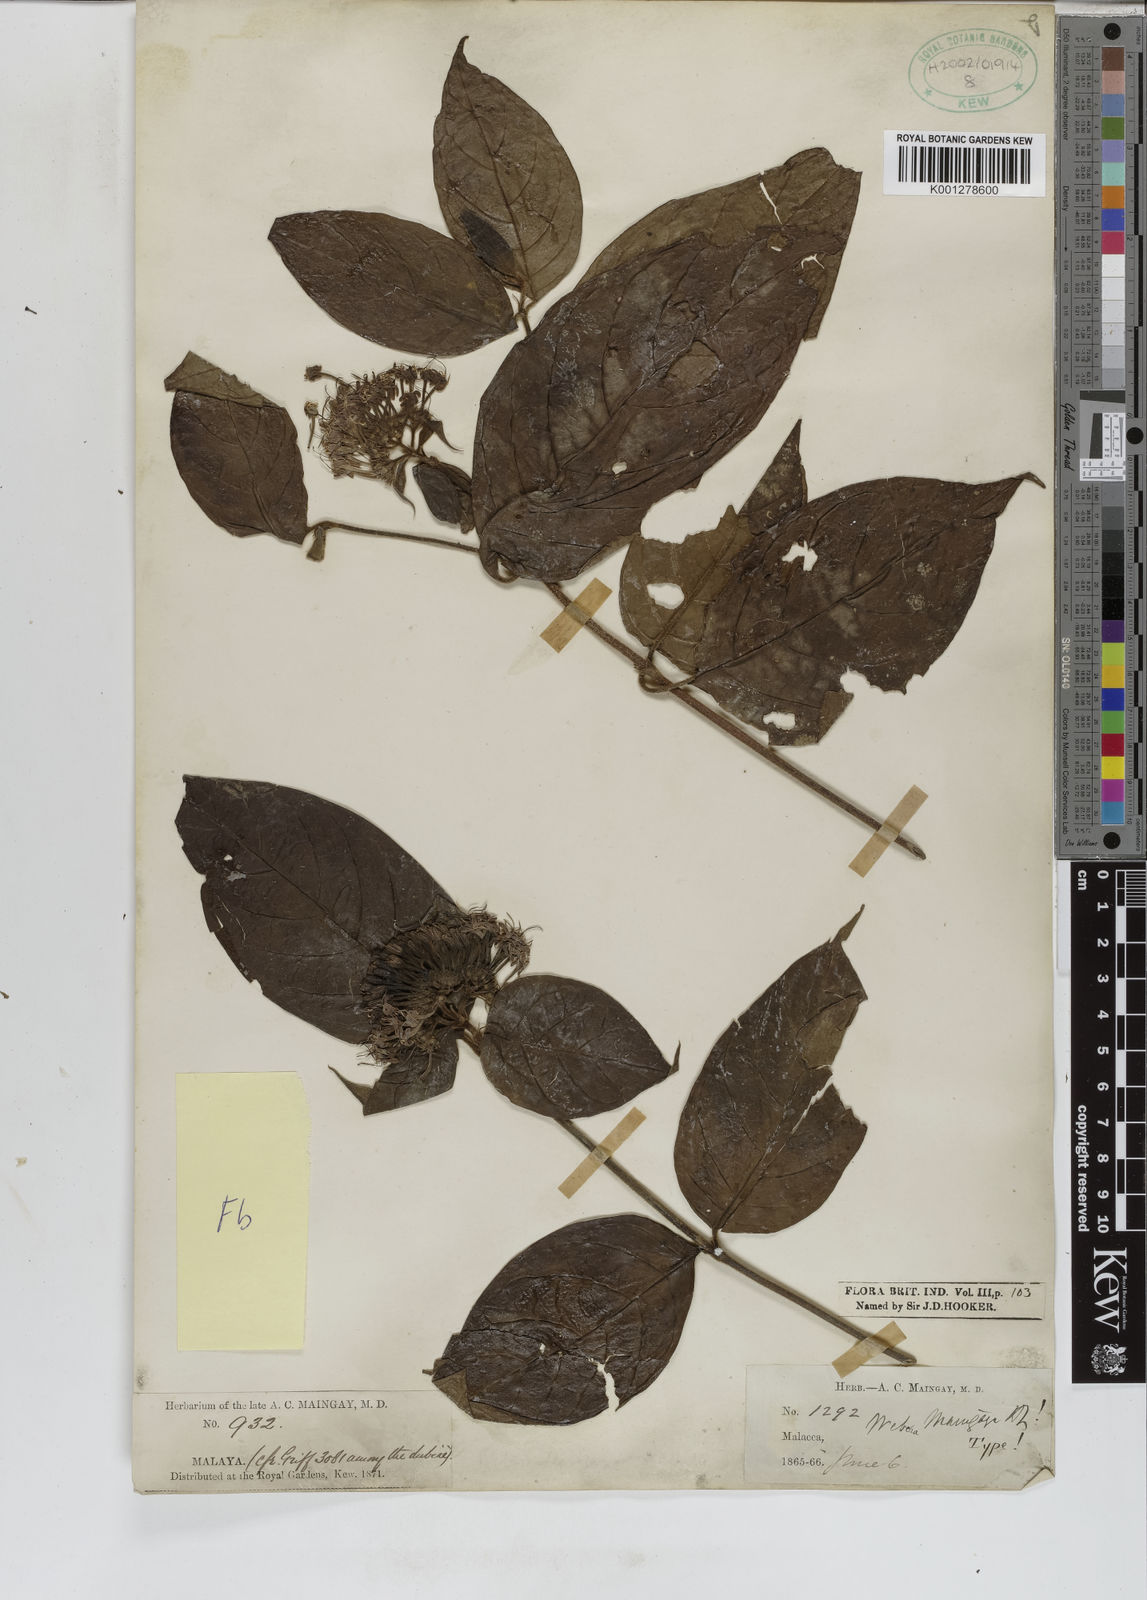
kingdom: Plantae
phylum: Tracheophyta
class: Magnoliopsida
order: Gentianales
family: Rubiaceae
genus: Tarenna
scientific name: Tarenna maingayi
